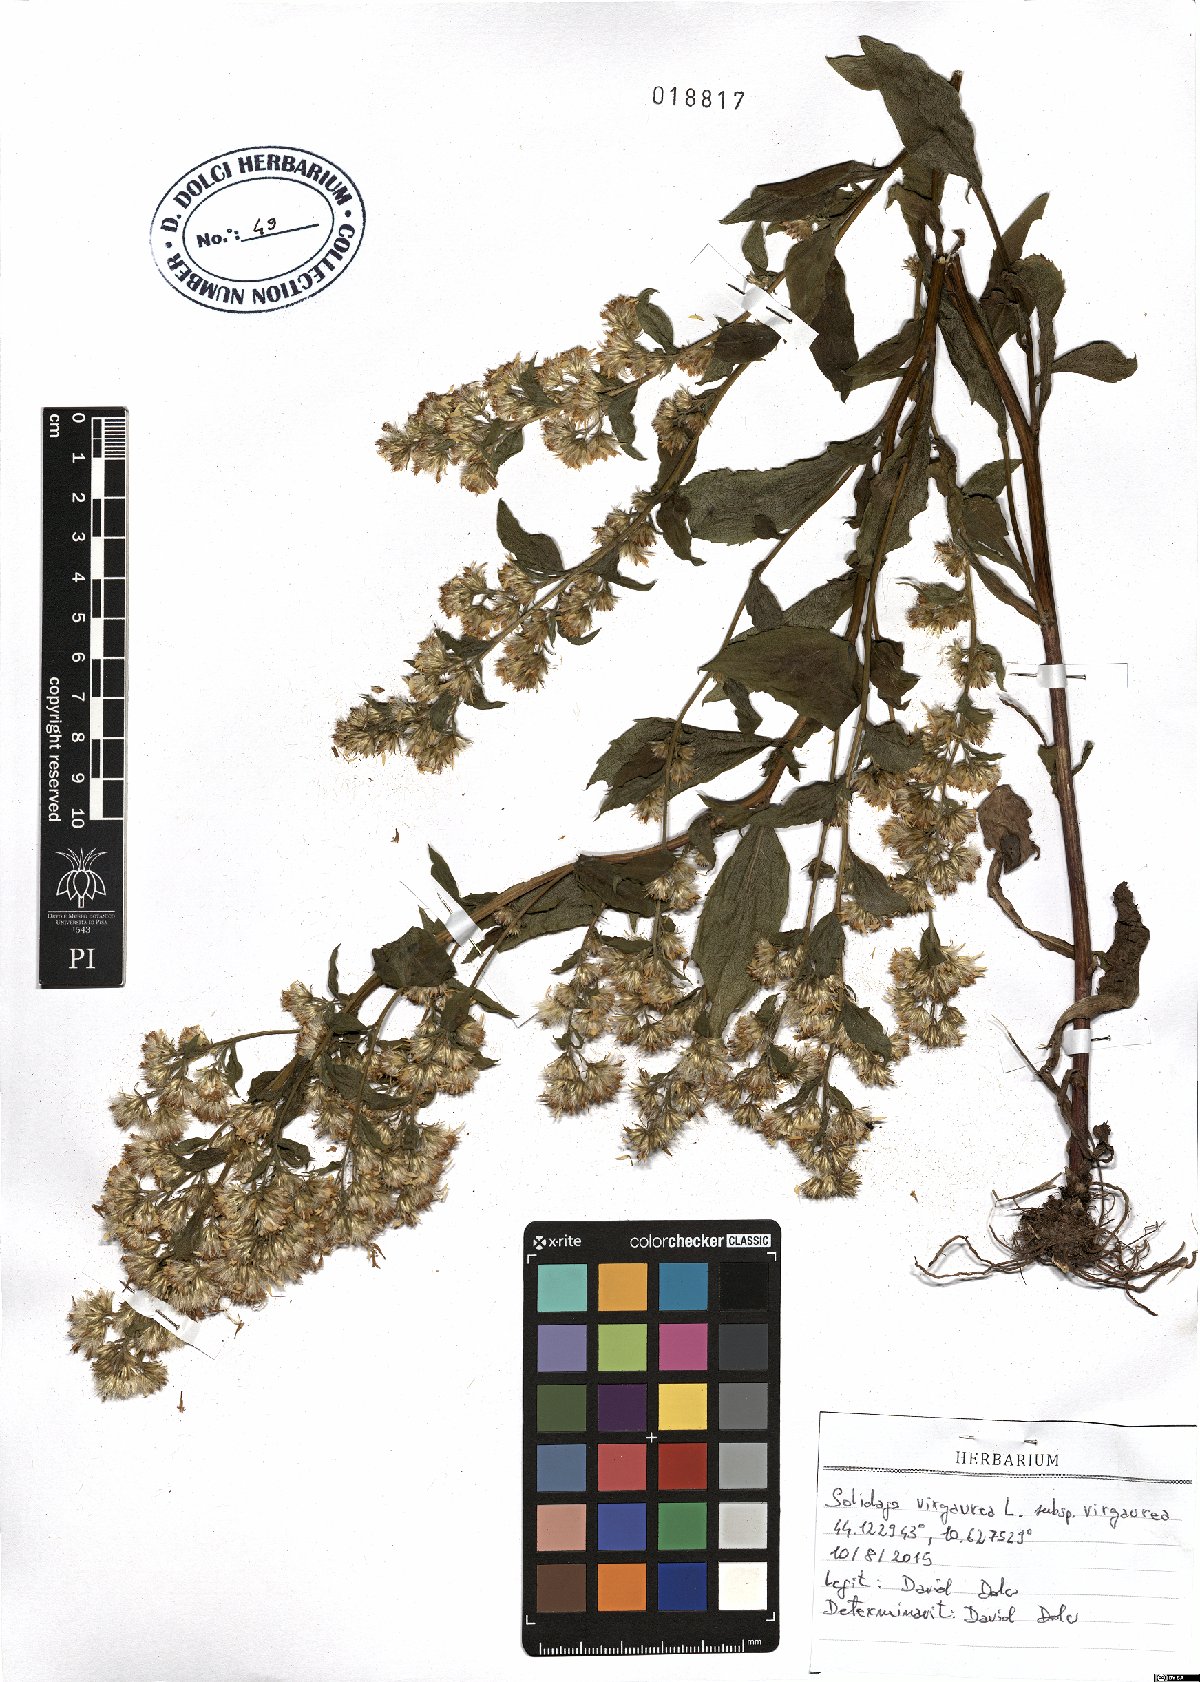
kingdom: Plantae
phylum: Tracheophyta
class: Magnoliopsida
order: Asterales
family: Asteraceae
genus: Solidago
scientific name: Solidago virgaurea
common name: Goldenrod
